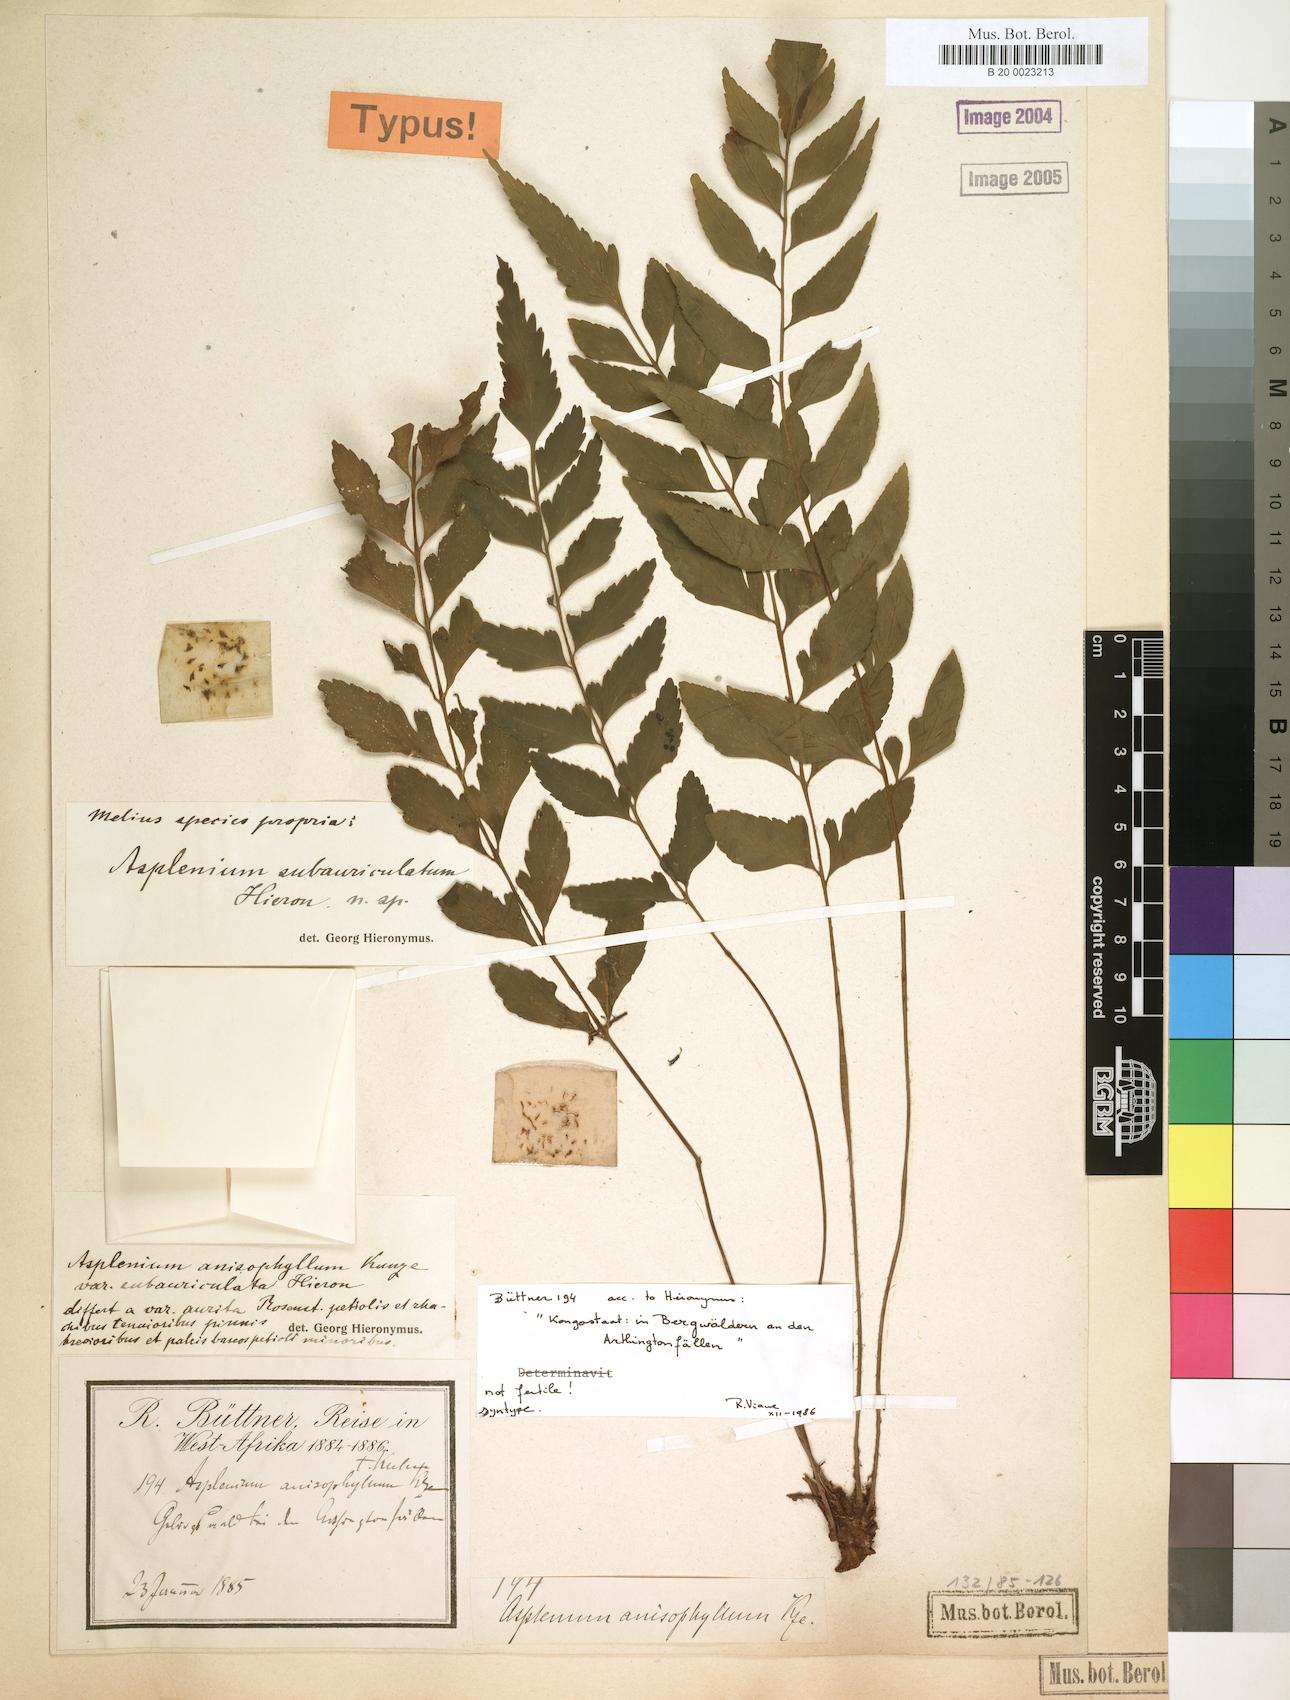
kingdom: Plantae
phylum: Tracheophyta
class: Polypodiopsida
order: Polypodiales
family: Aspleniaceae
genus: Asplenium
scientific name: Asplenium anisophyllum
